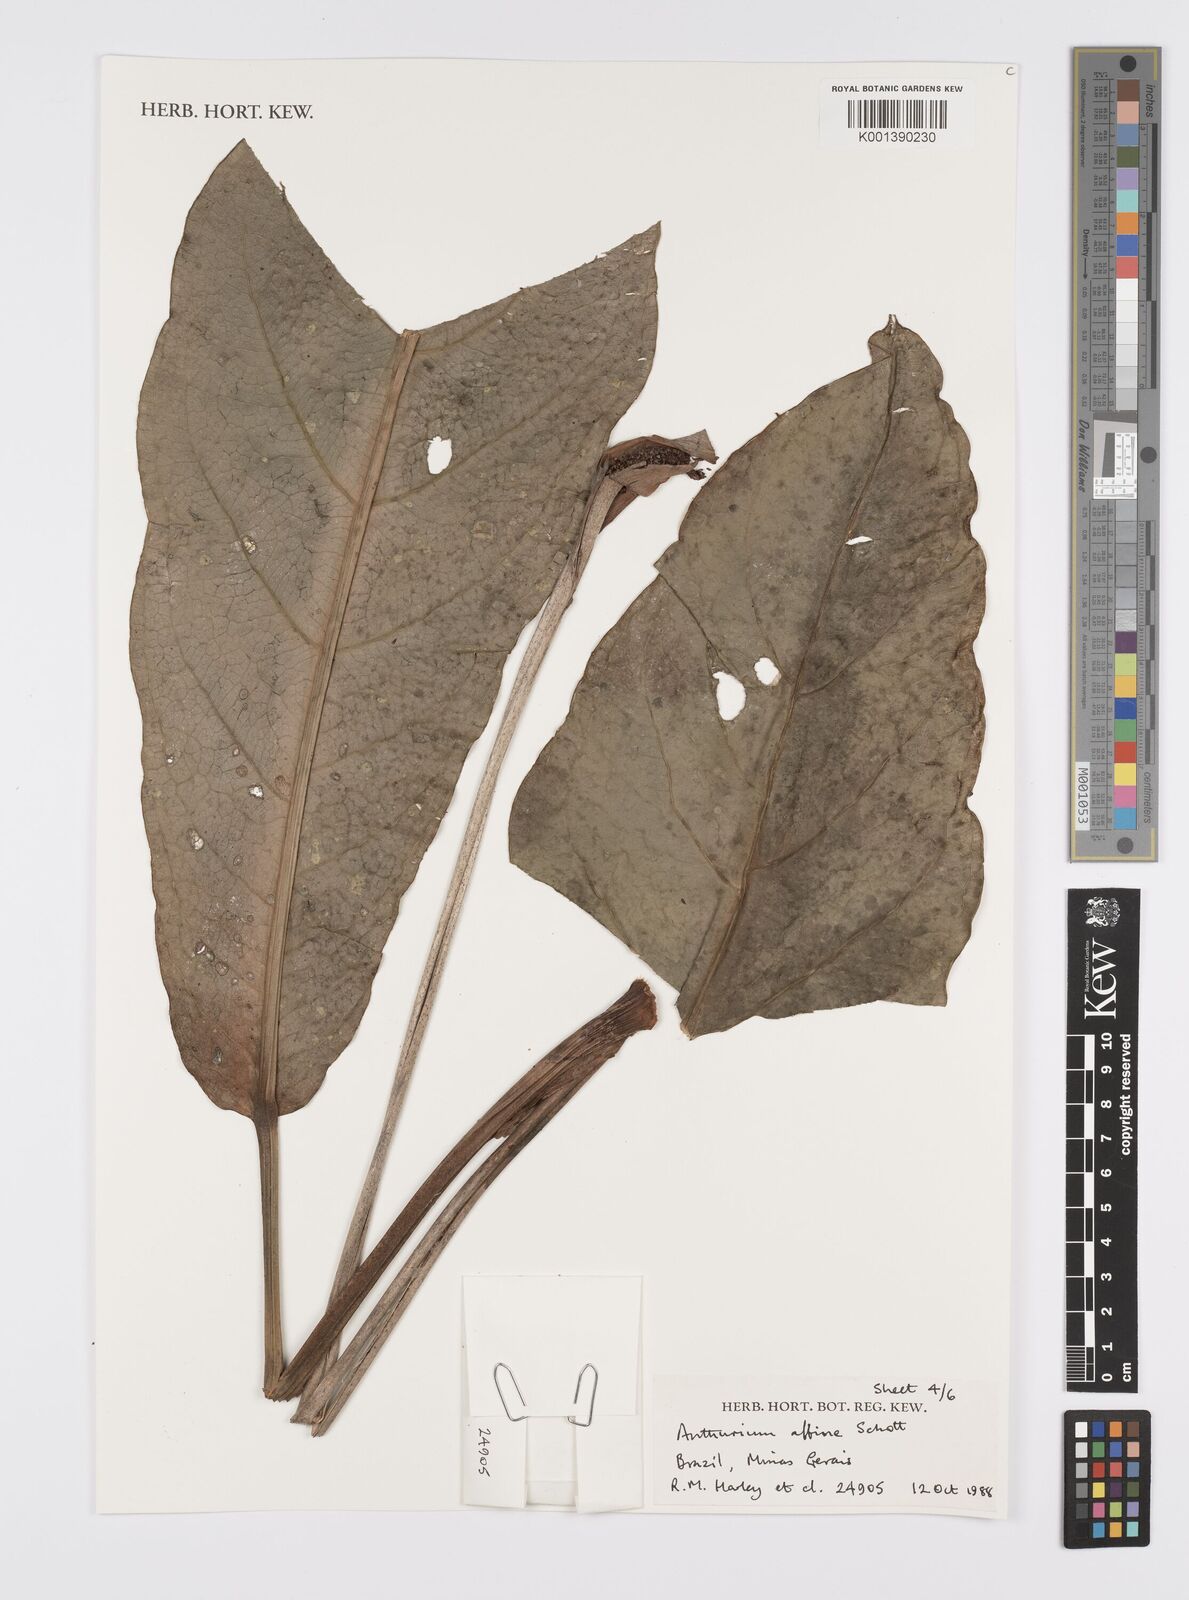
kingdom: Plantae
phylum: Tracheophyta
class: Liliopsida
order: Alismatales
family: Araceae
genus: Anthurium
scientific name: Anthurium affine
